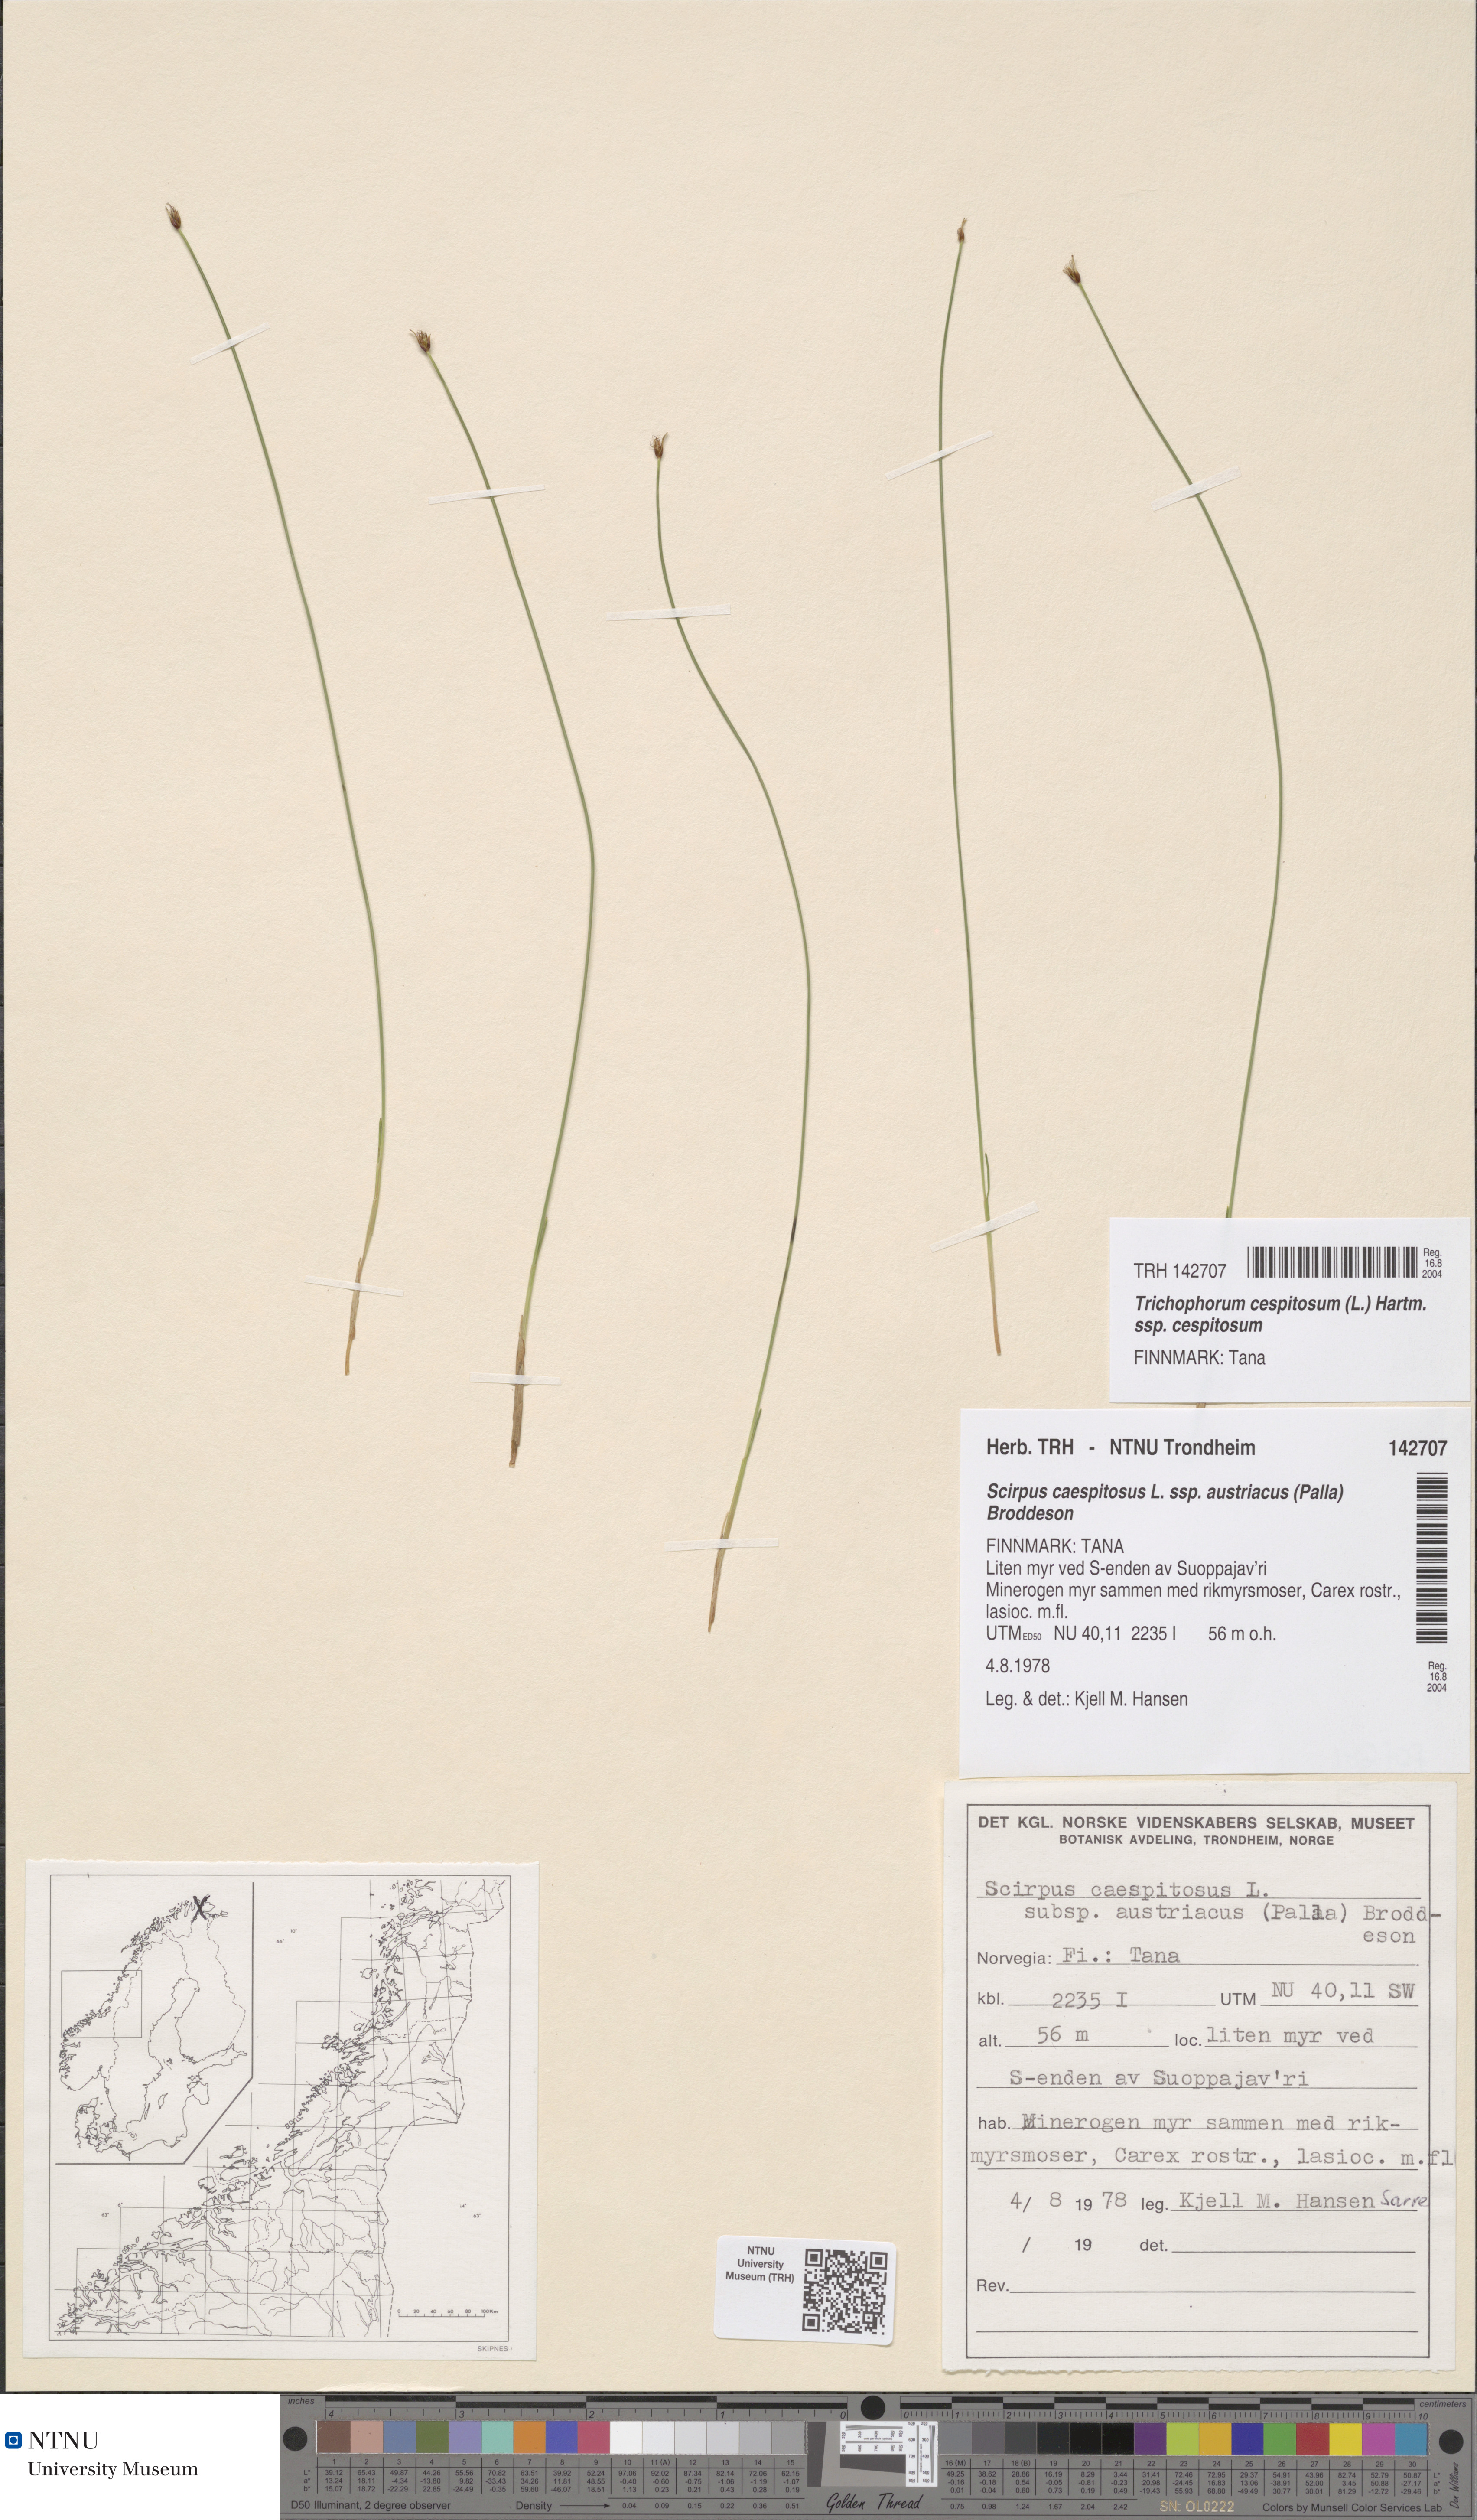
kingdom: Plantae
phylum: Tracheophyta
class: Liliopsida
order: Poales
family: Cyperaceae
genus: Trichophorum
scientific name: Trichophorum cespitosum
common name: Cespitose bulrush
